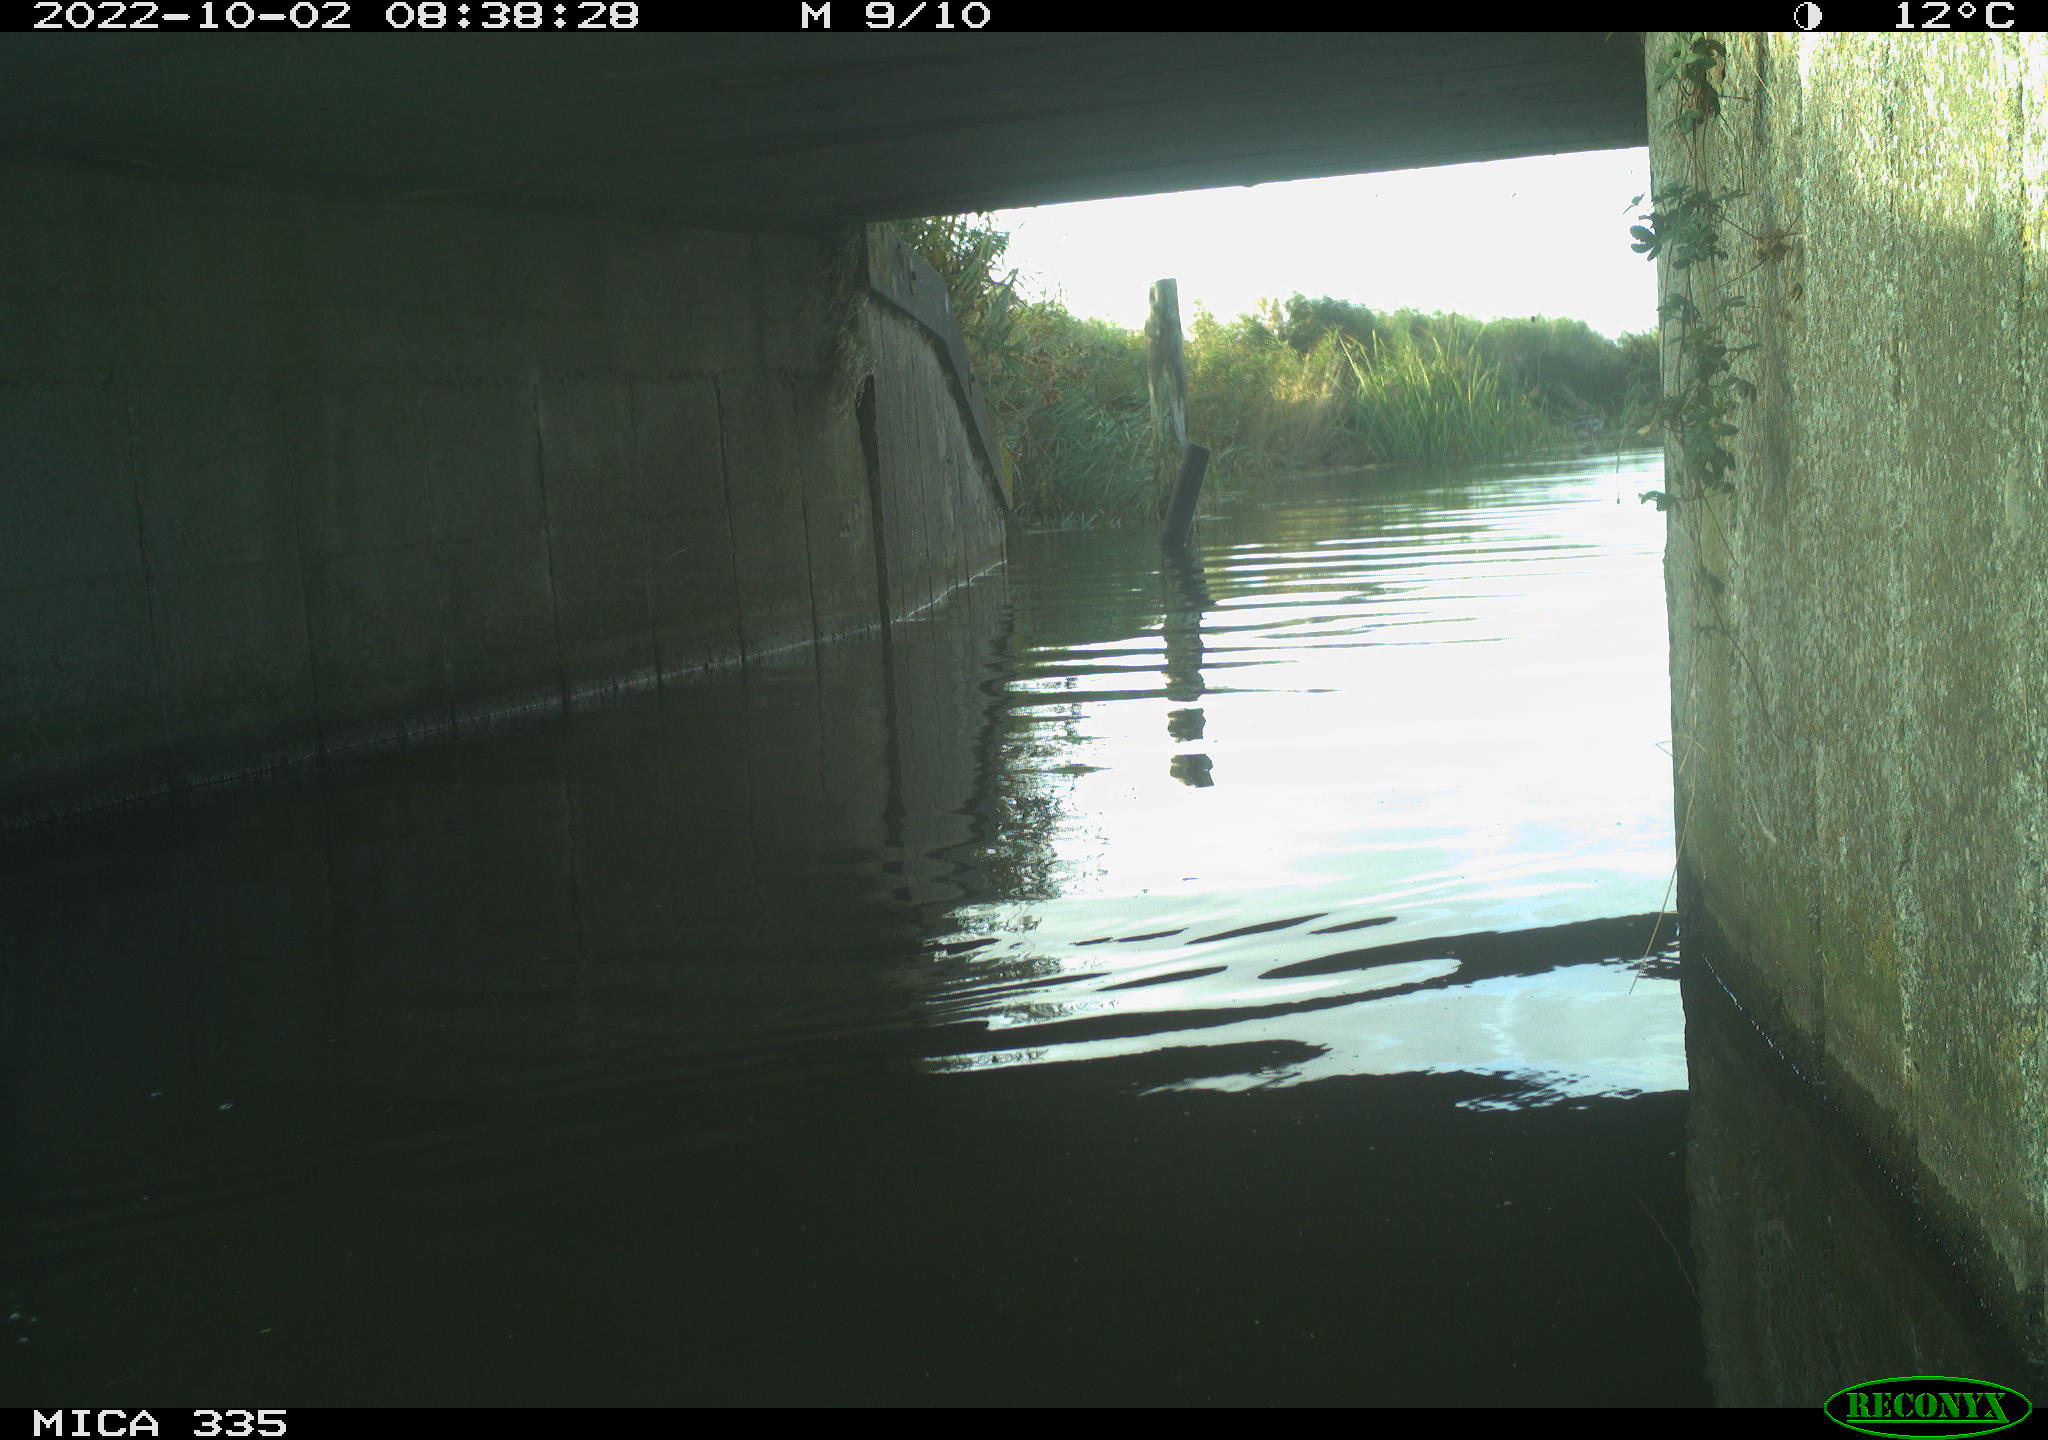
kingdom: Animalia
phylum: Chordata
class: Aves
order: Anseriformes
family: Anatidae
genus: Anas
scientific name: Anas platyrhynchos
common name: Mallard
